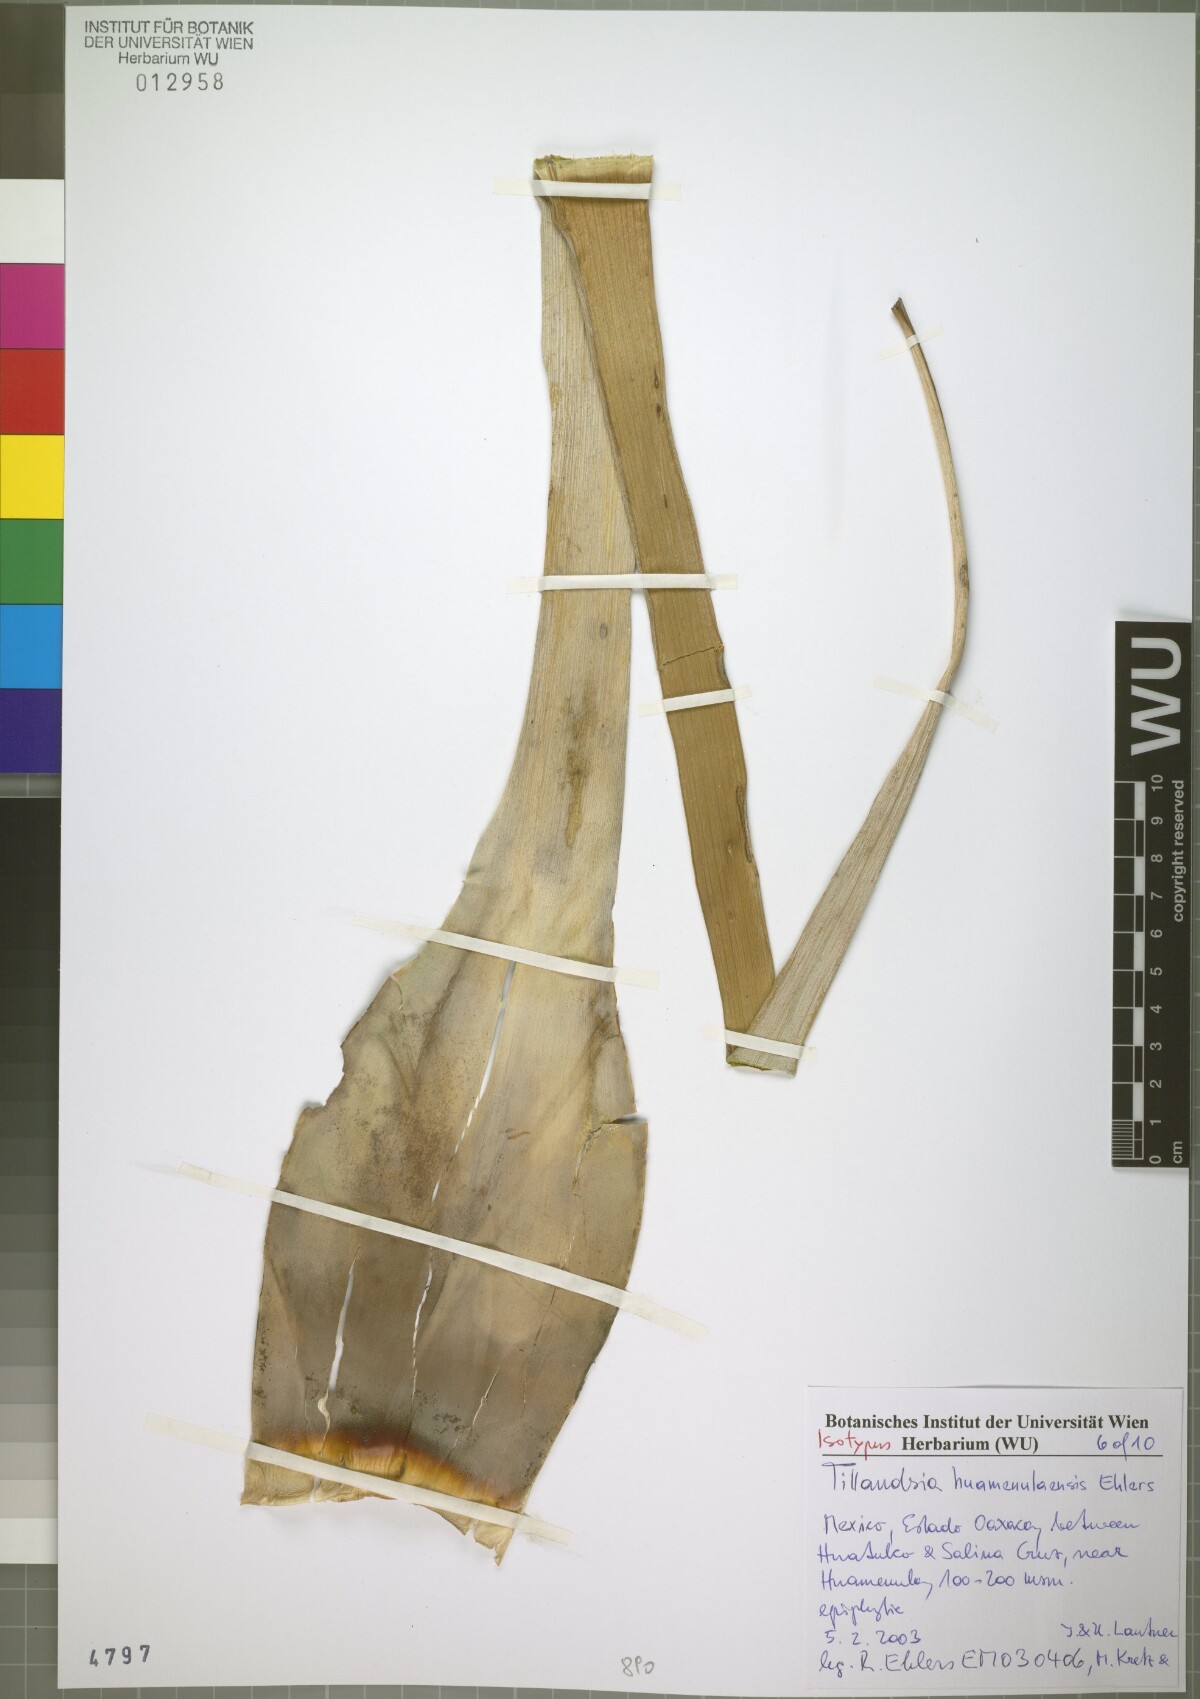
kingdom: Plantae
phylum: Tracheophyta
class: Liliopsida
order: Poales
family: Bromeliaceae
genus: Tillandsia
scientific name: Tillandsia huamenulaensis
